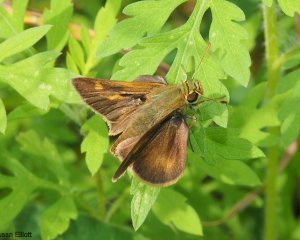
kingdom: Animalia
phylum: Arthropoda
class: Insecta
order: Lepidoptera
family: Hesperiidae
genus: Polites
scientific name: Polites egeremet
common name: Northern Broken-Dash
